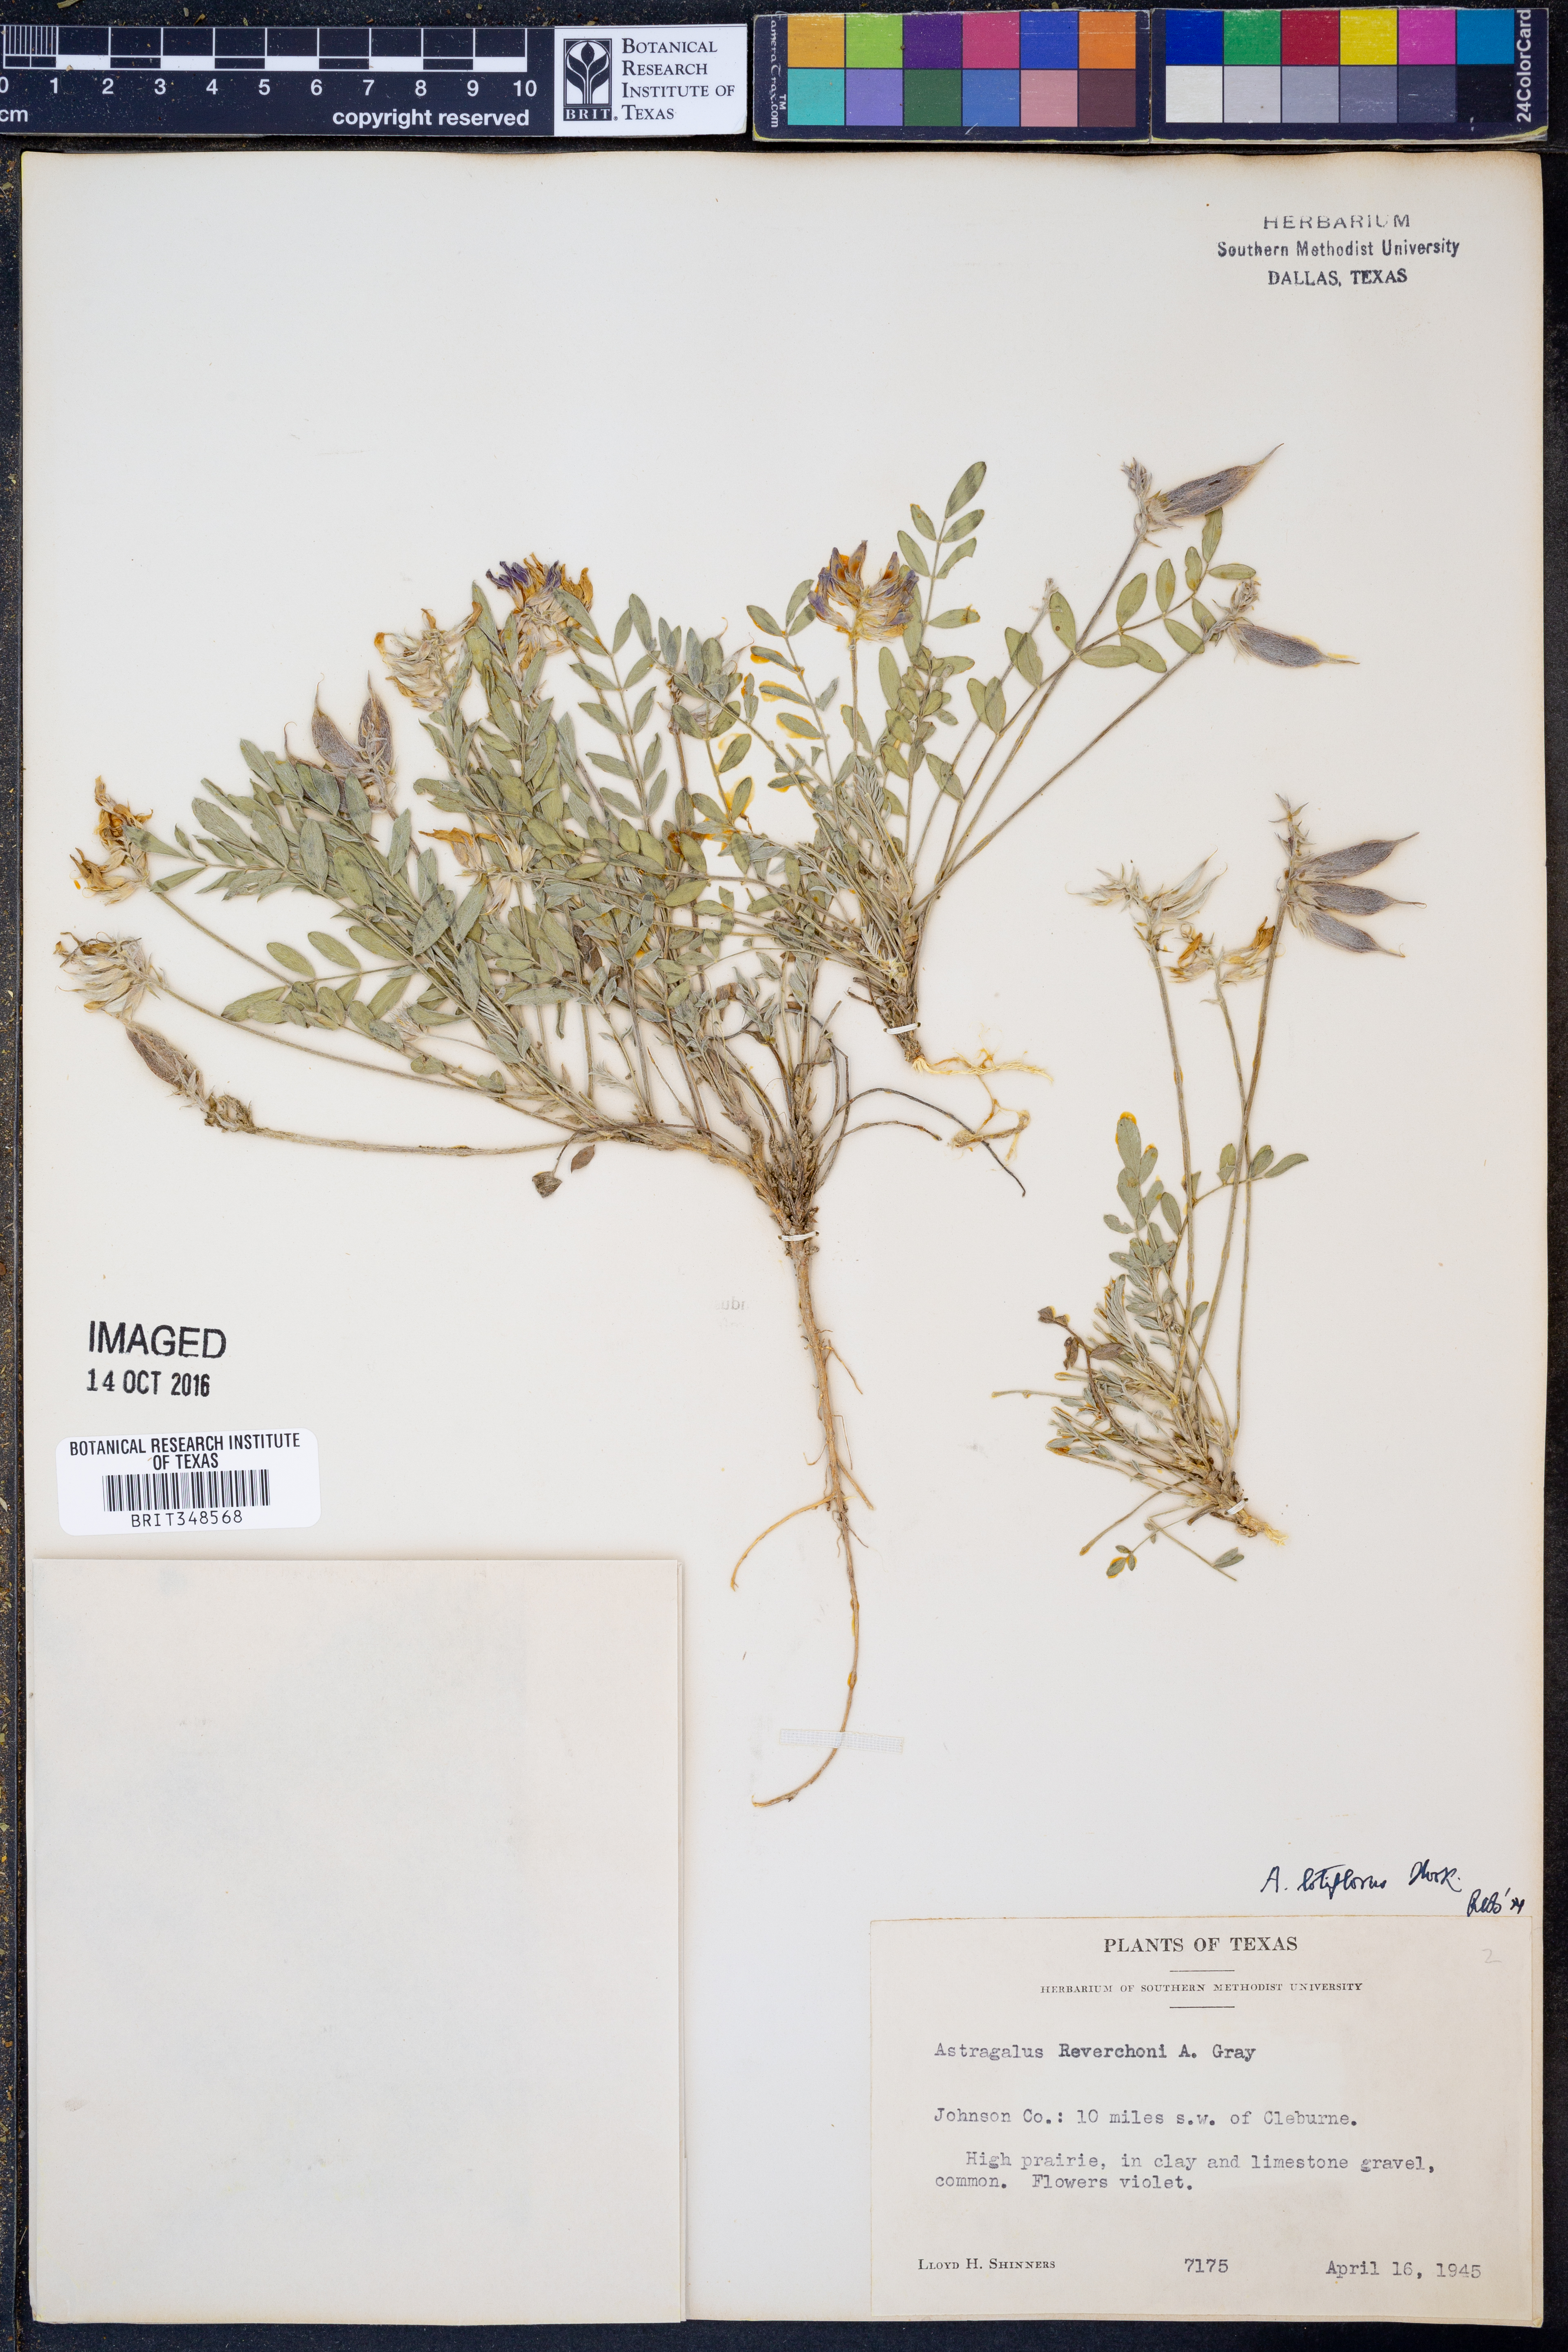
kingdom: Plantae
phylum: Tracheophyta
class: Magnoliopsida
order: Fabales
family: Fabaceae
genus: Astragalus
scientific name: Astragalus lotiflorus
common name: Lotus milk-vetch
